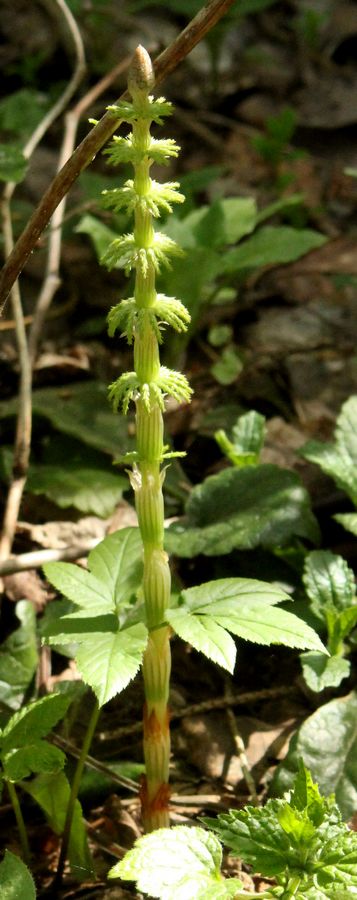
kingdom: Plantae
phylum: Tracheophyta
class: Polypodiopsida
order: Equisetales
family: Equisetaceae
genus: Equisetum
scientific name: Equisetum
